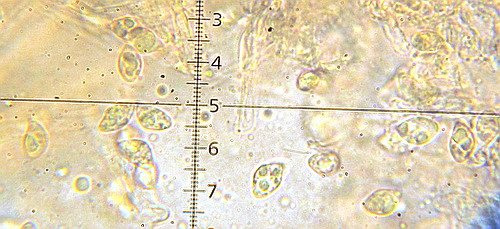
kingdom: Fungi
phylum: Basidiomycota
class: Agaricomycetes
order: Agaricales
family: Tubariaceae
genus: Flammulaster
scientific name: Flammulaster carpophilus
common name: blegrosa grynskælhat
